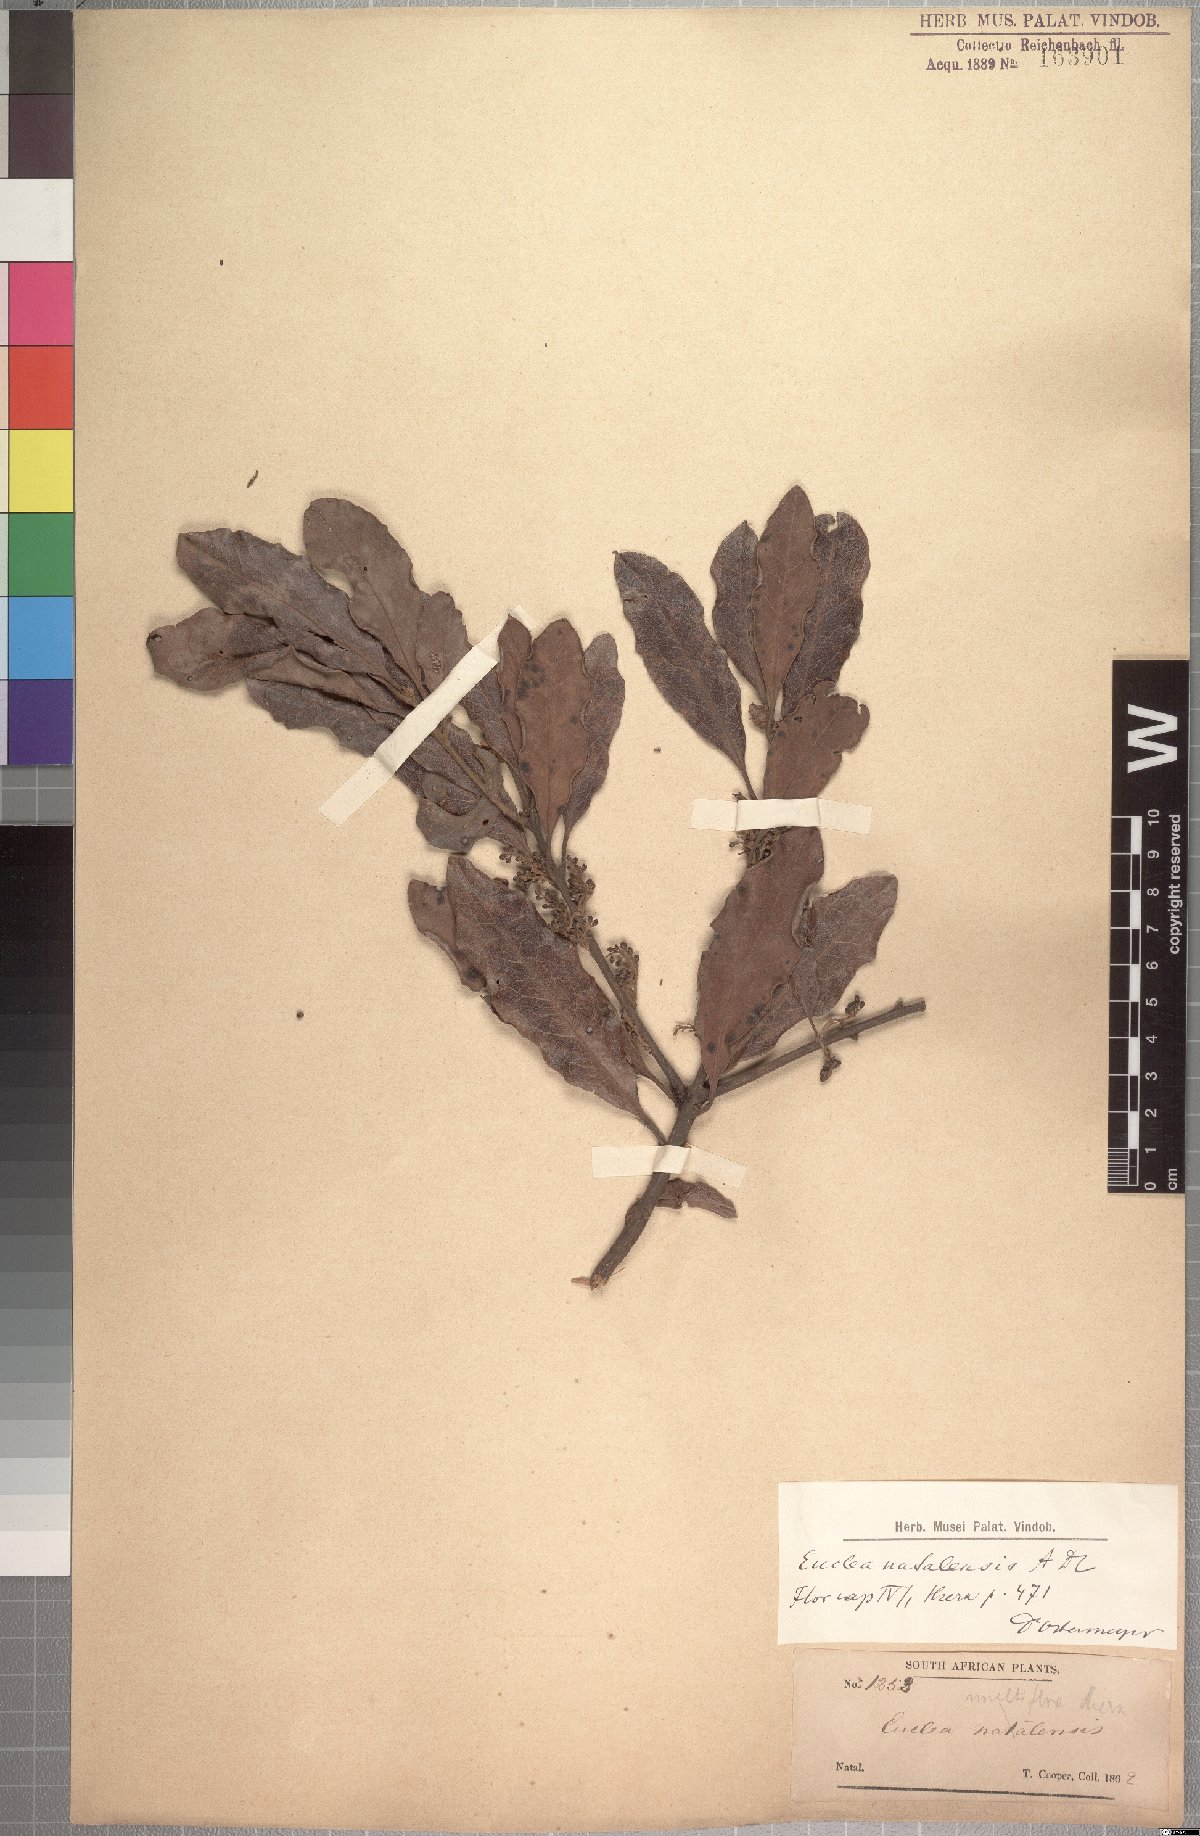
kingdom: Plantae
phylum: Tracheophyta
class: Magnoliopsida
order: Ericales
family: Ebenaceae
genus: Euclea
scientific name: Euclea natalensis
